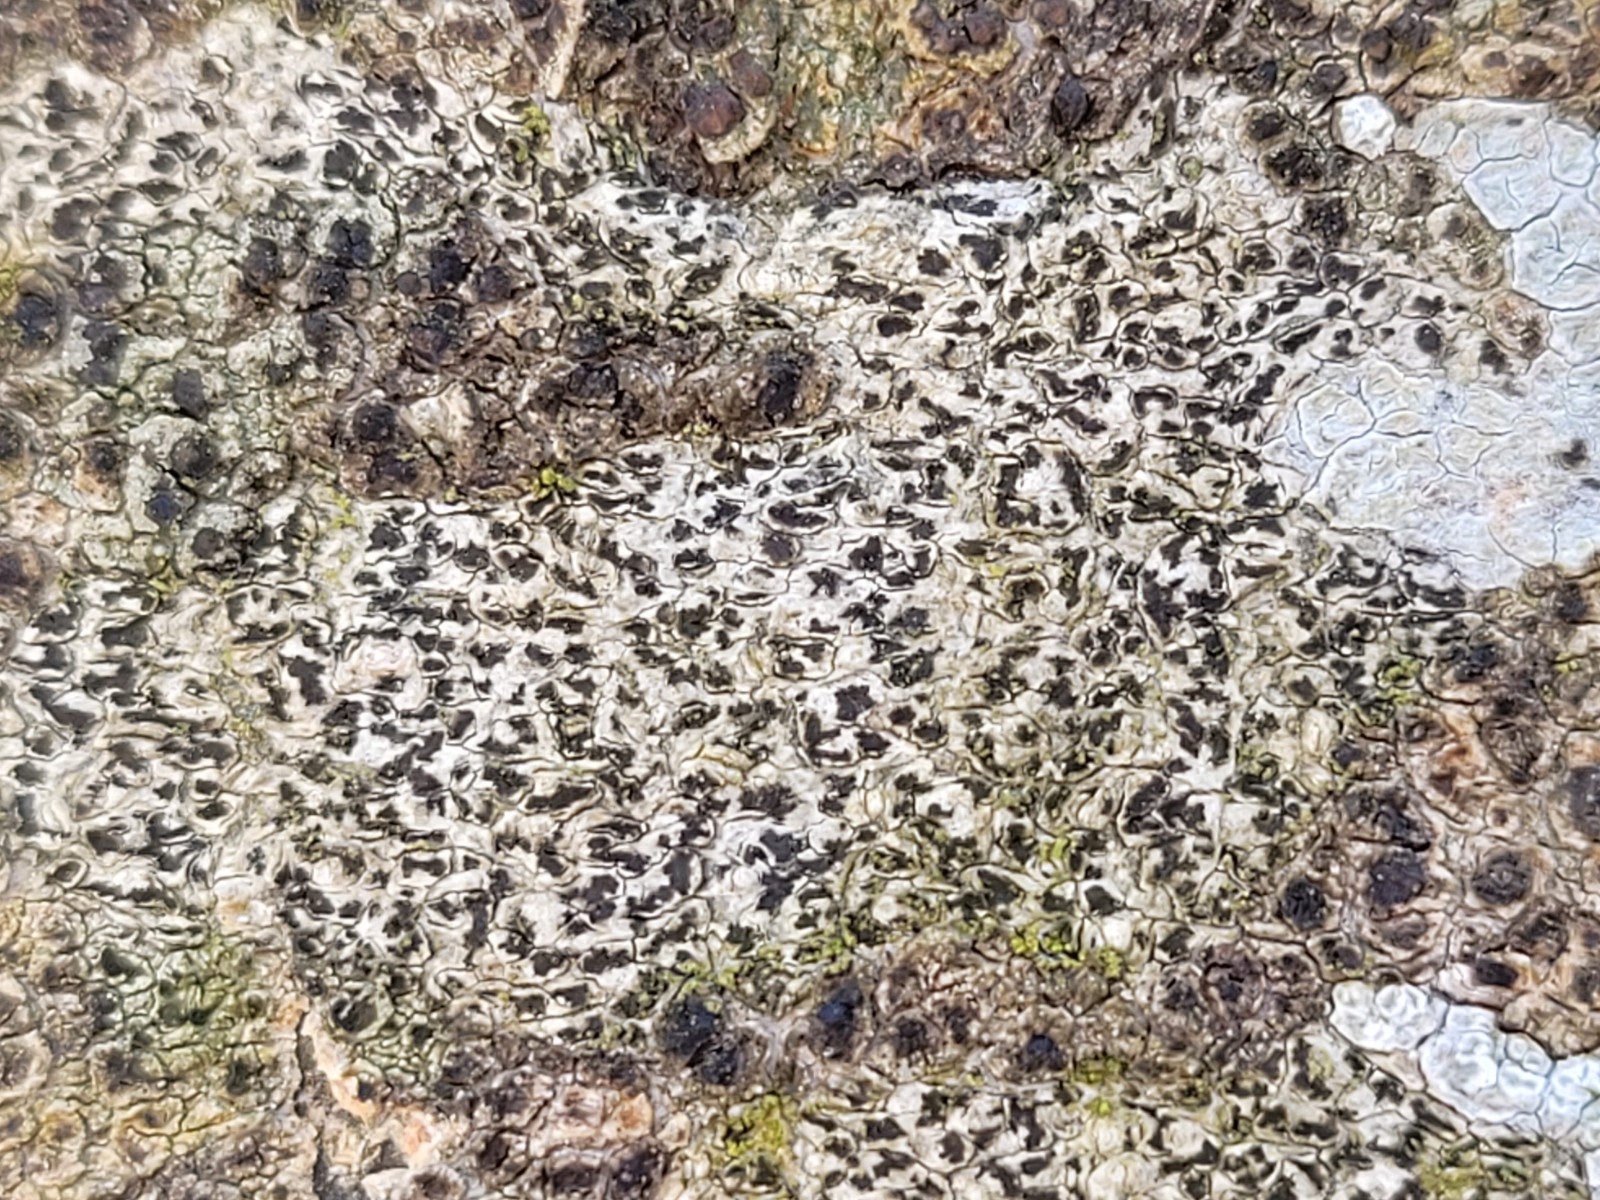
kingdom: Fungi
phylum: Ascomycota
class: Arthoniomycetes
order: Arthoniales
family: Arthoniaceae
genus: Arthonia
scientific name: Arthonia radiata
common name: stjerne-pletlav
